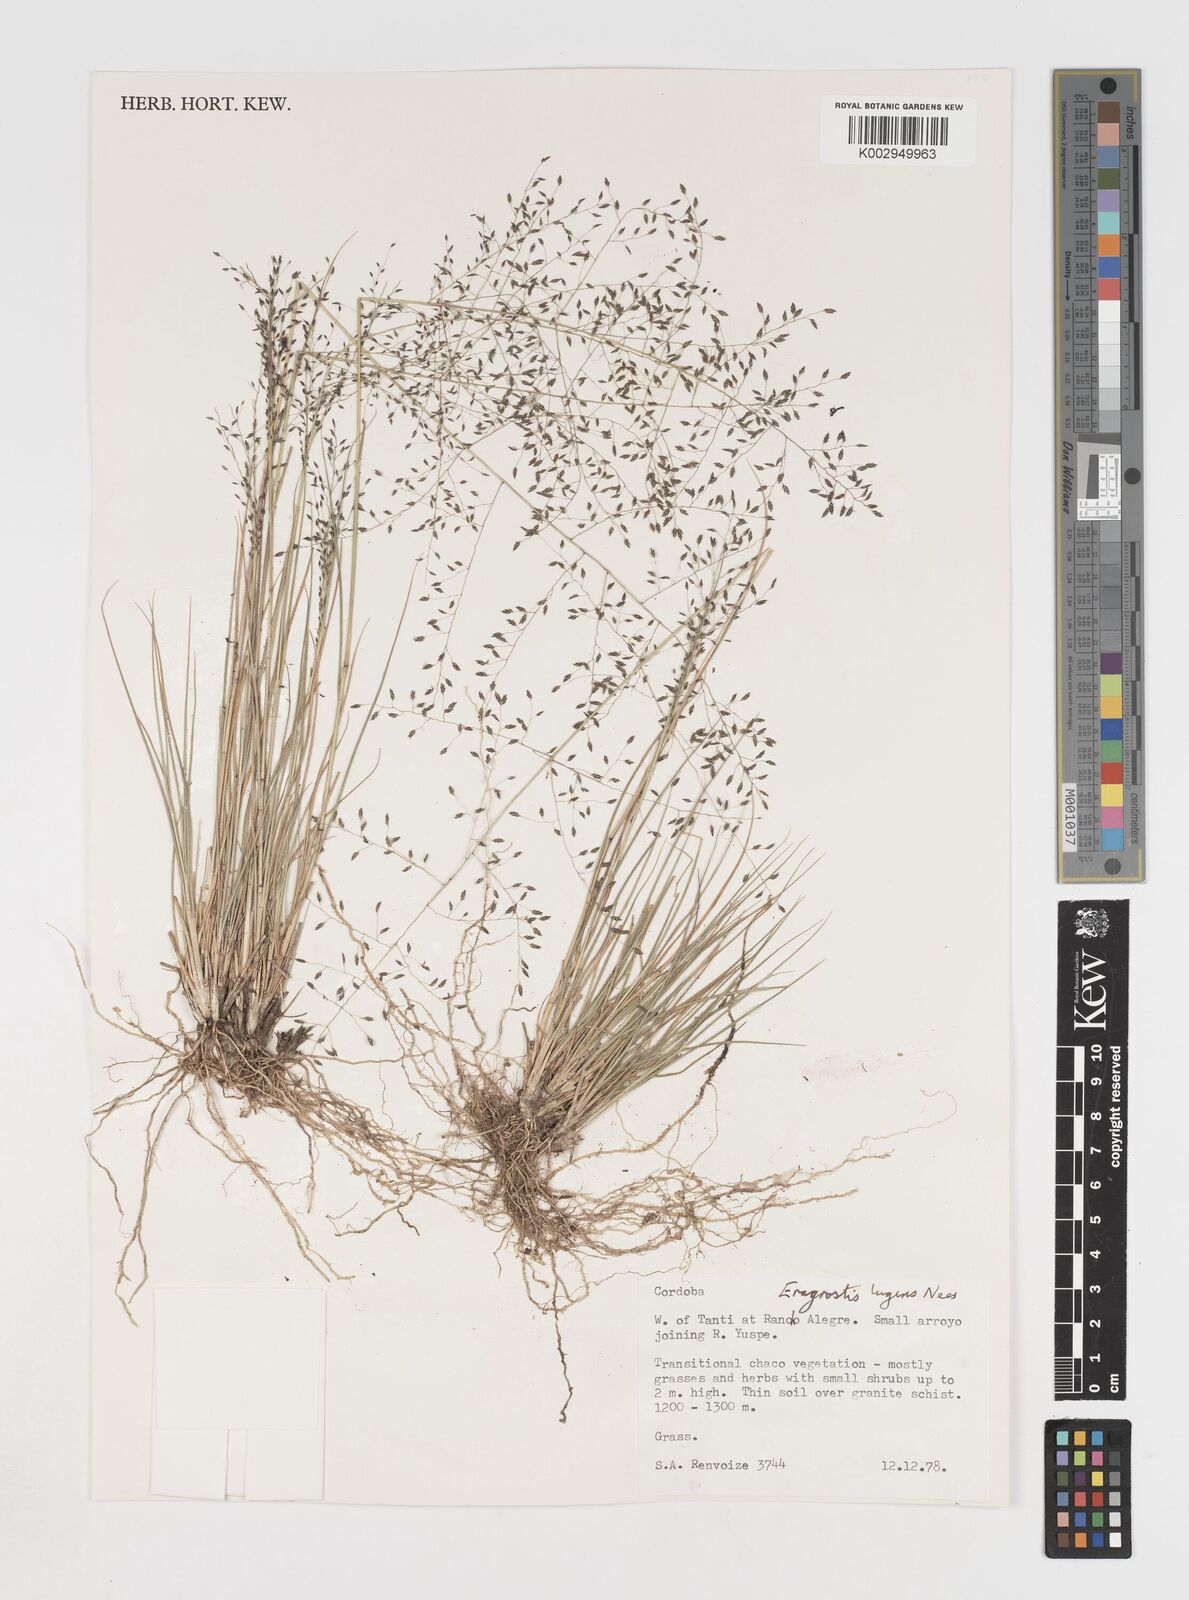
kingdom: Plantae
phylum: Tracheophyta
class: Liliopsida
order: Poales
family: Poaceae
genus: Eragrostis
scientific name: Eragrostis
